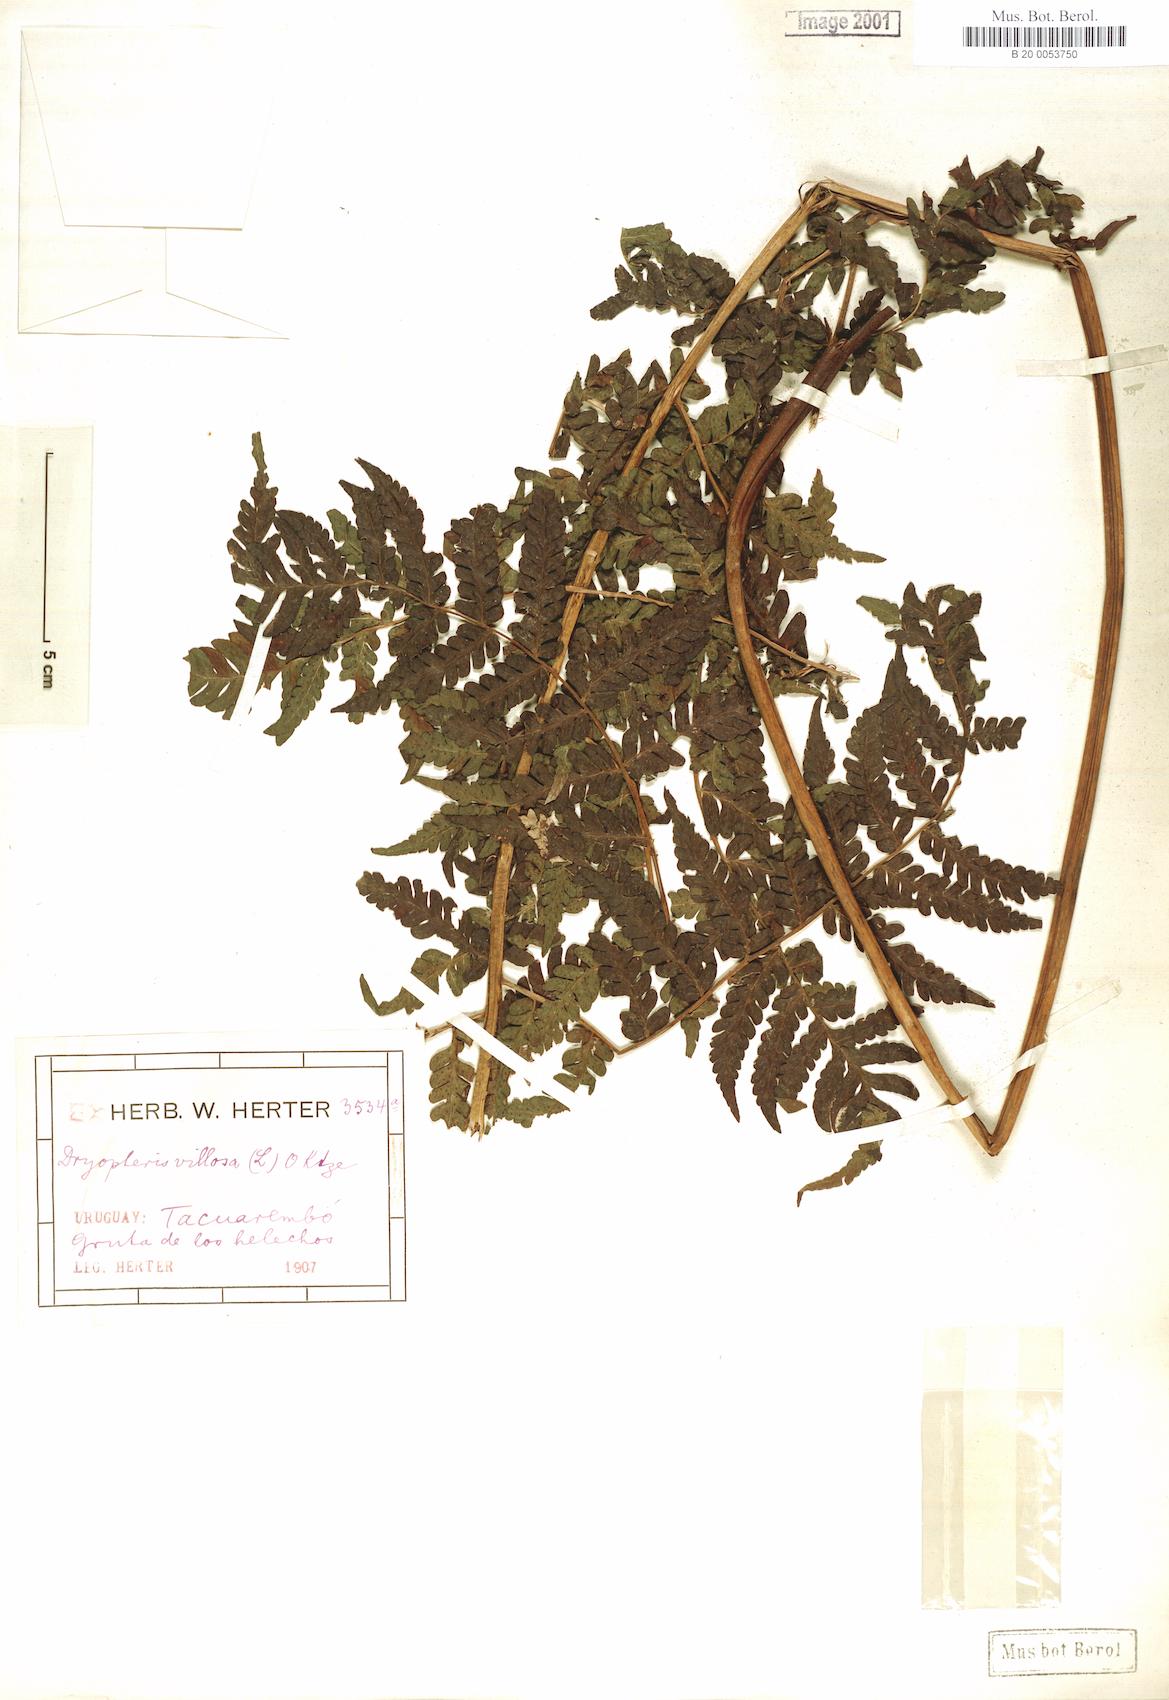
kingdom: Plantae
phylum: Tracheophyta
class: Polypodiopsida
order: Polypodiales
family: Dryopteridaceae
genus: Megalastrum
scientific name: Megalastrum villosum
